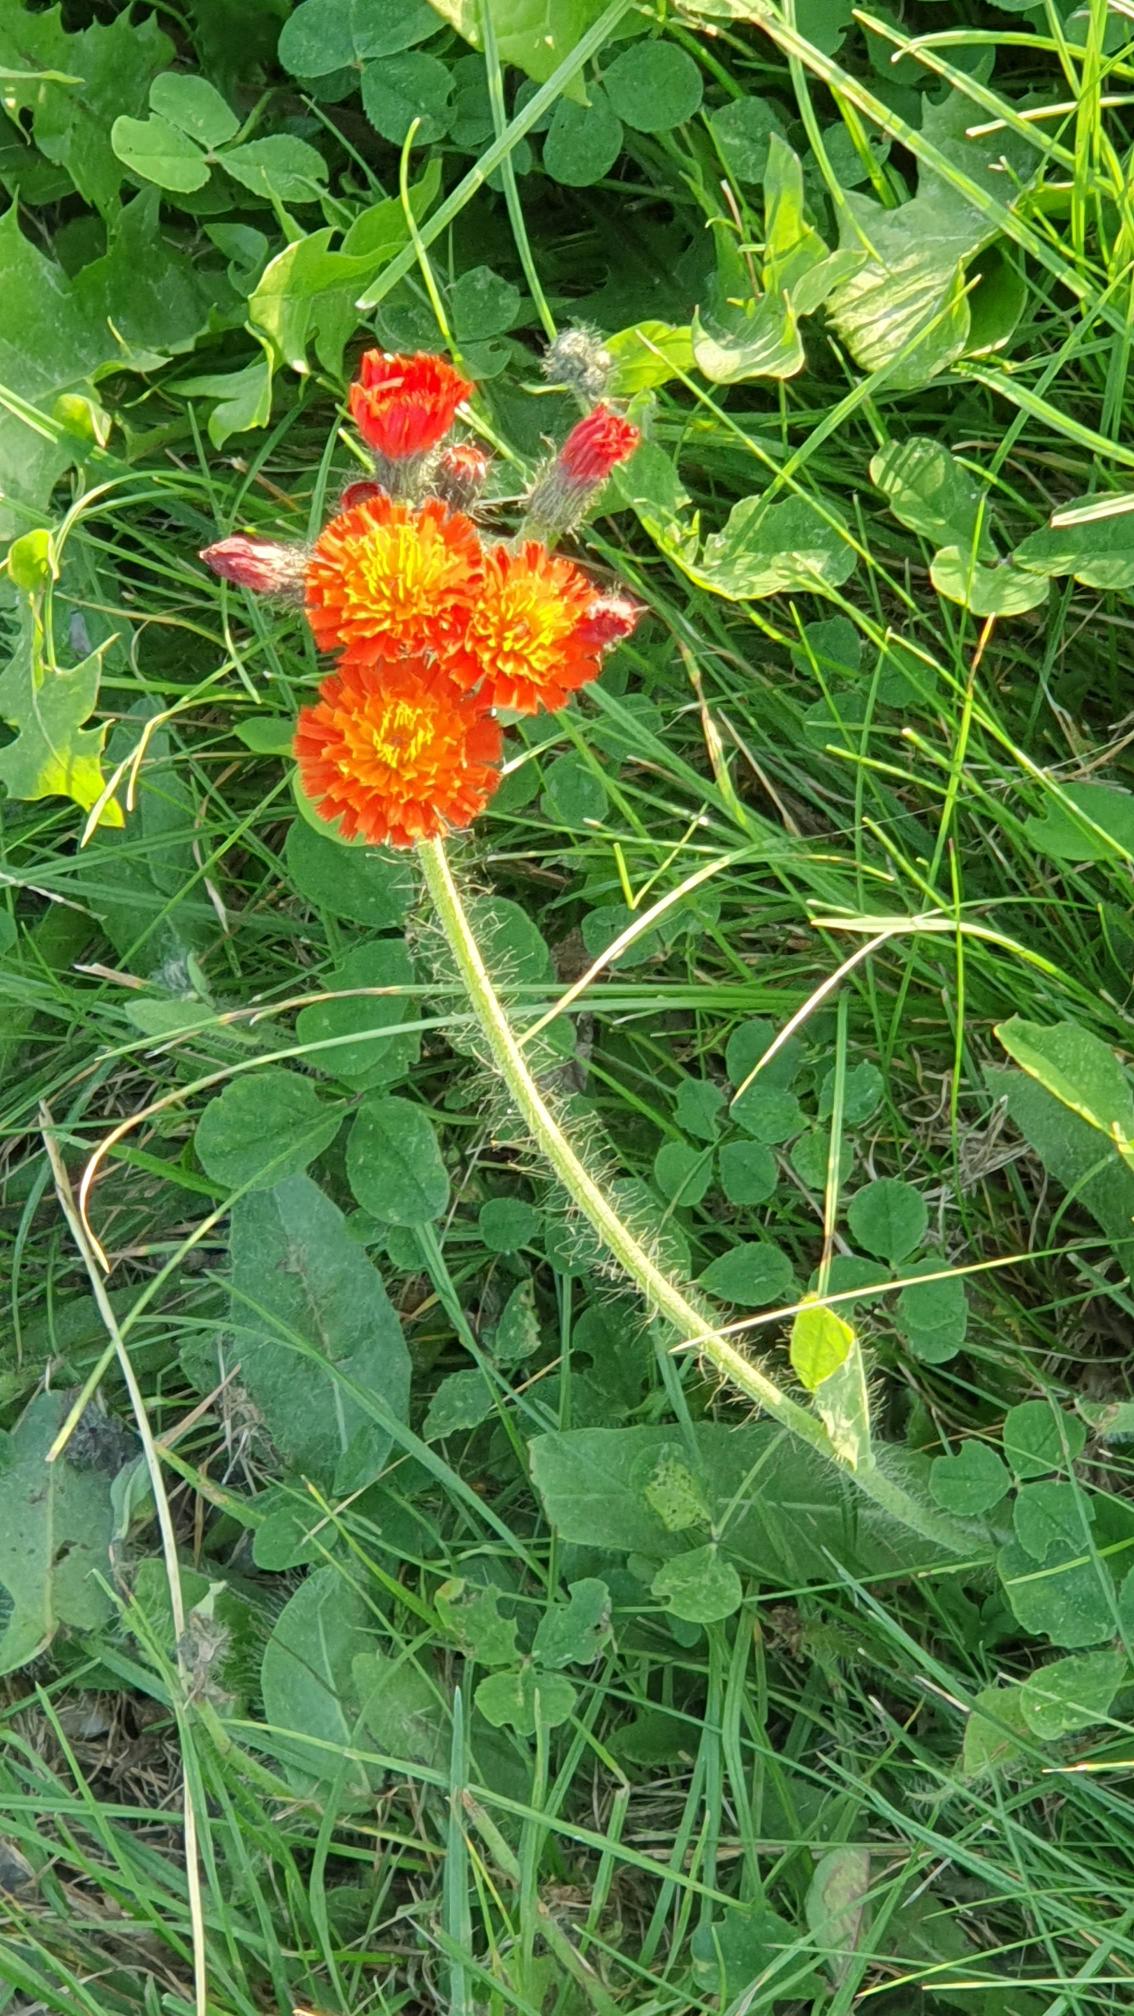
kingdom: Plantae
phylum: Tracheophyta
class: Magnoliopsida
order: Asterales
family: Asteraceae
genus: Pilosella
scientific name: Pilosella aurantiaca
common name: Pomerans-høgeurt
